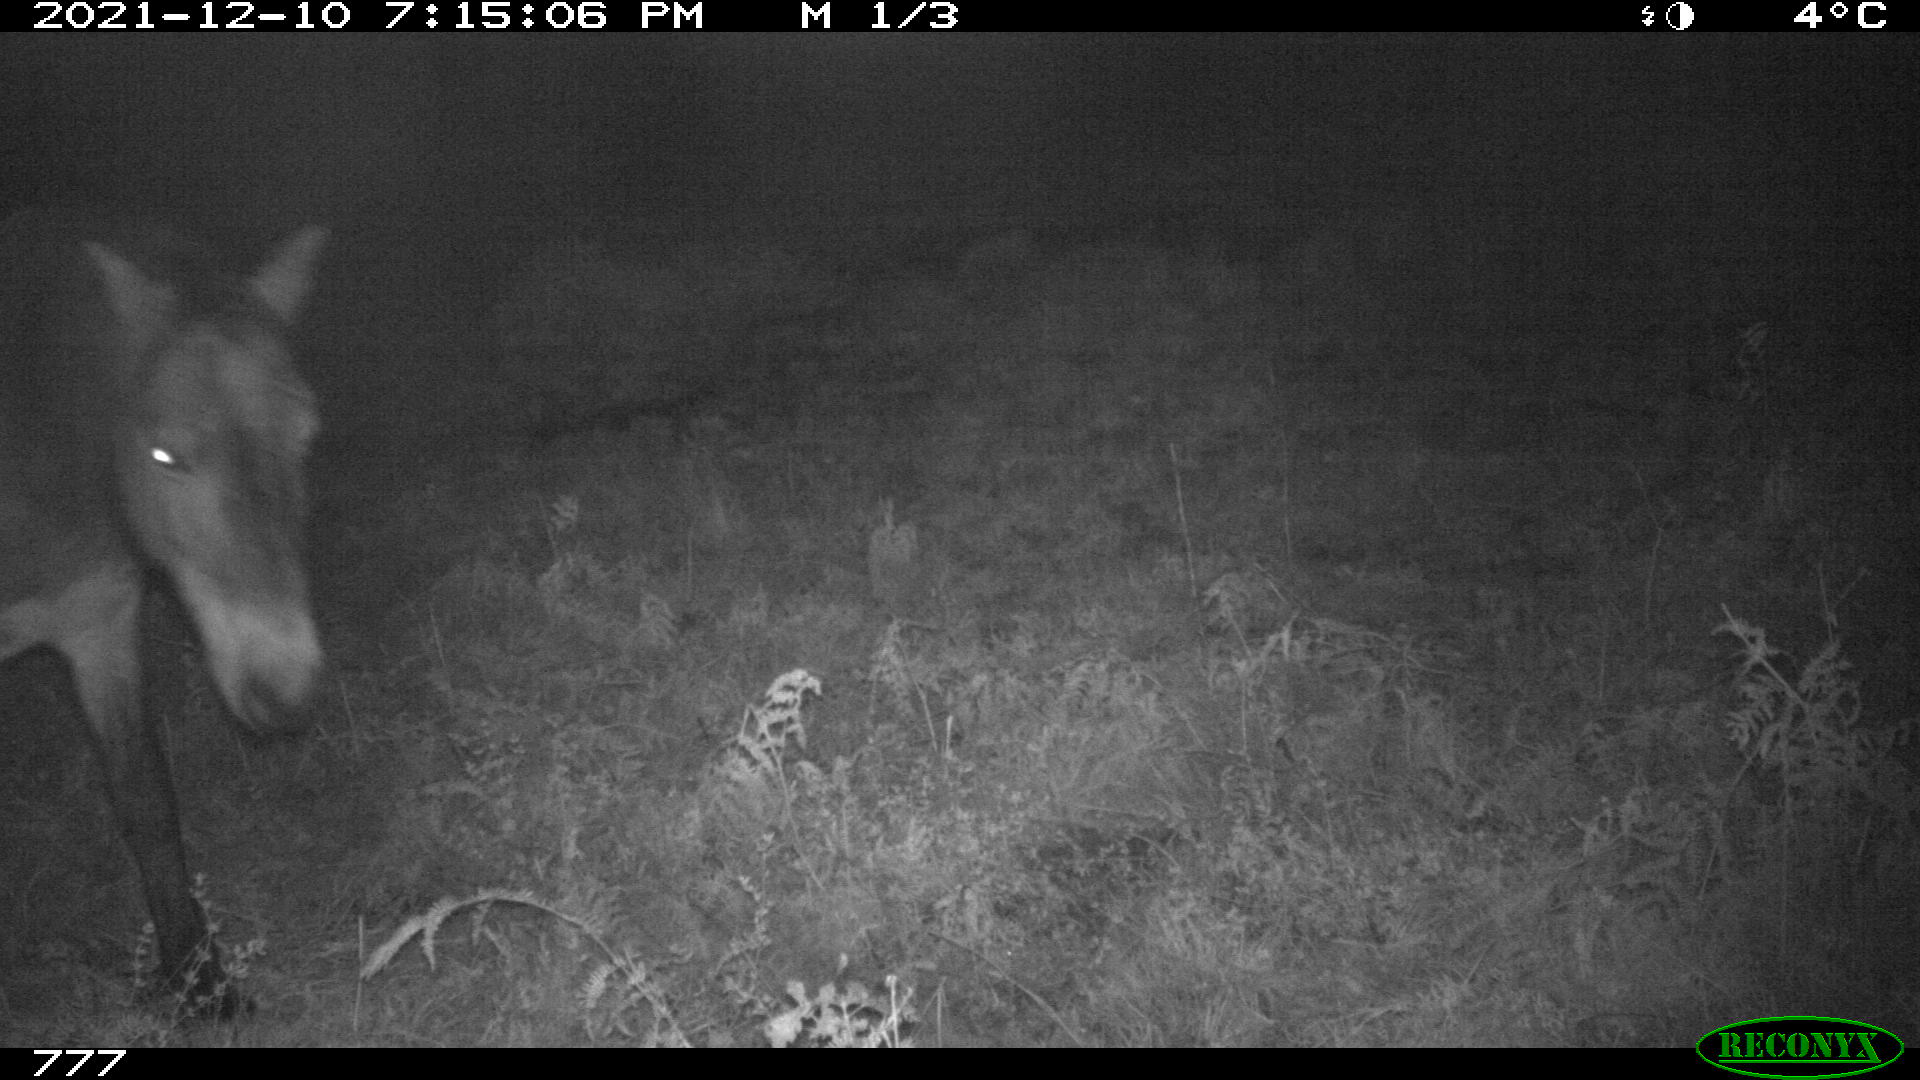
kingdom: Animalia
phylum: Chordata
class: Mammalia
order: Perissodactyla
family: Equidae
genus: Equus
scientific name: Equus caballus
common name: Horse
